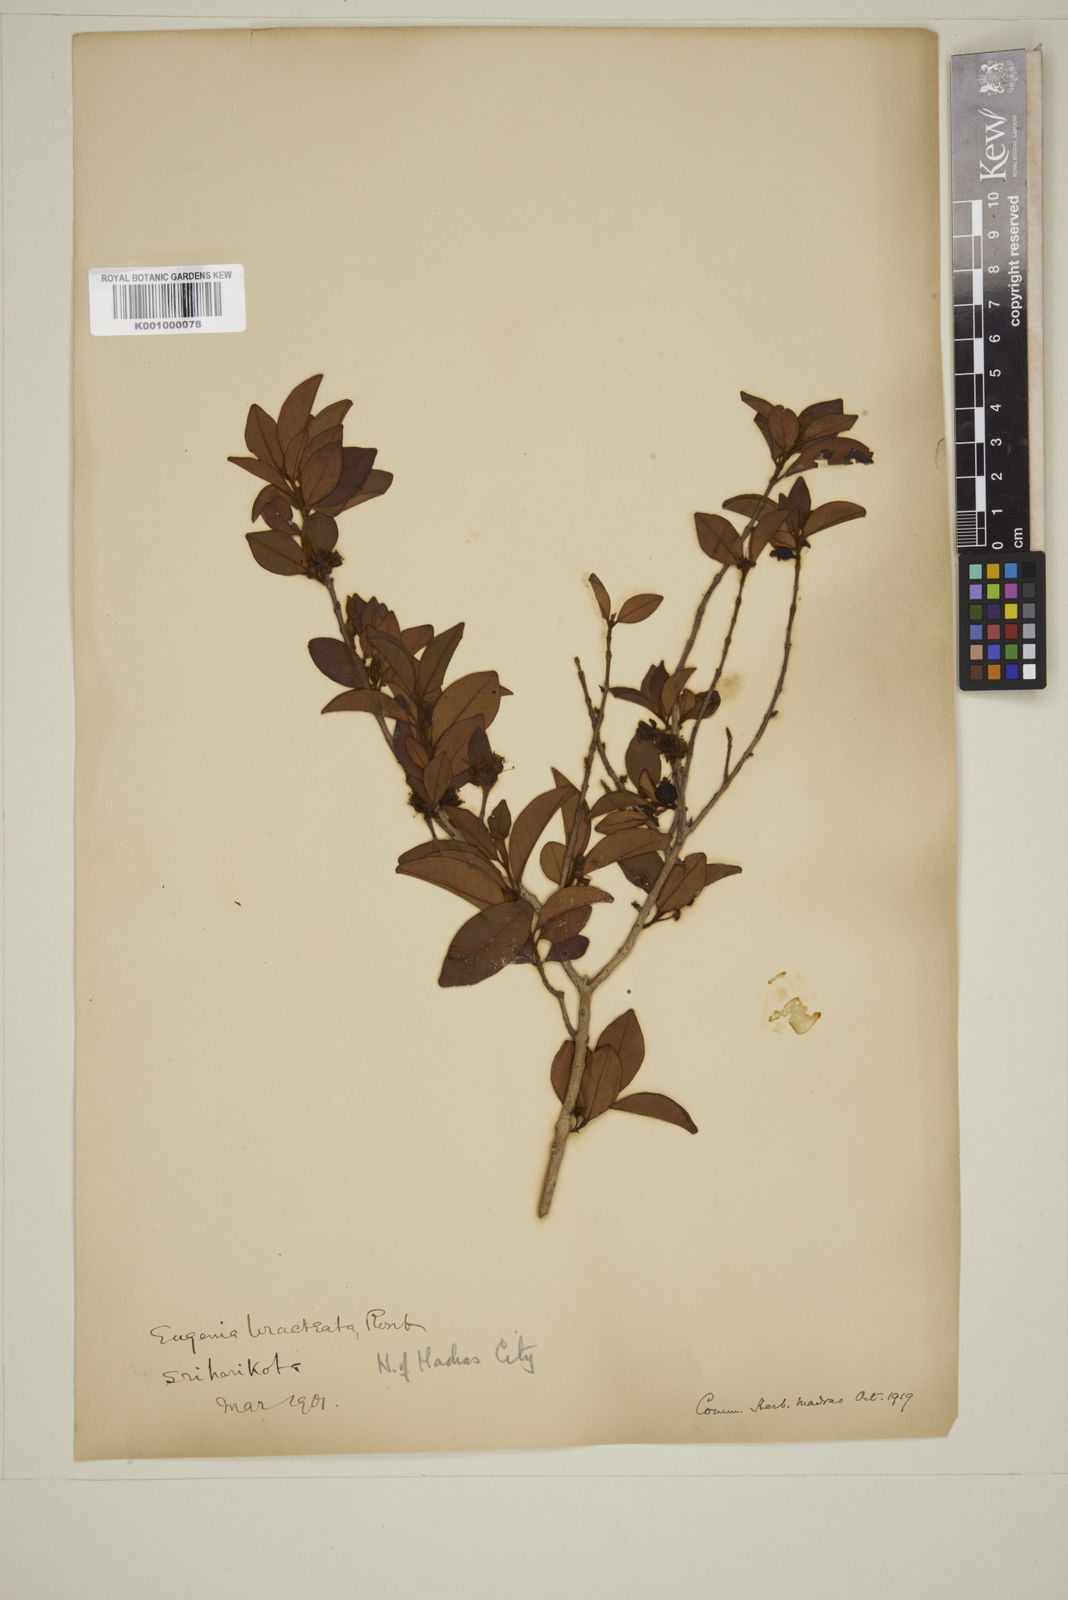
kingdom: Plantae
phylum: Tracheophyta
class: Magnoliopsida
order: Myrtales
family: Myrtaceae
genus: Myrcia
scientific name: Myrcia bracteata
